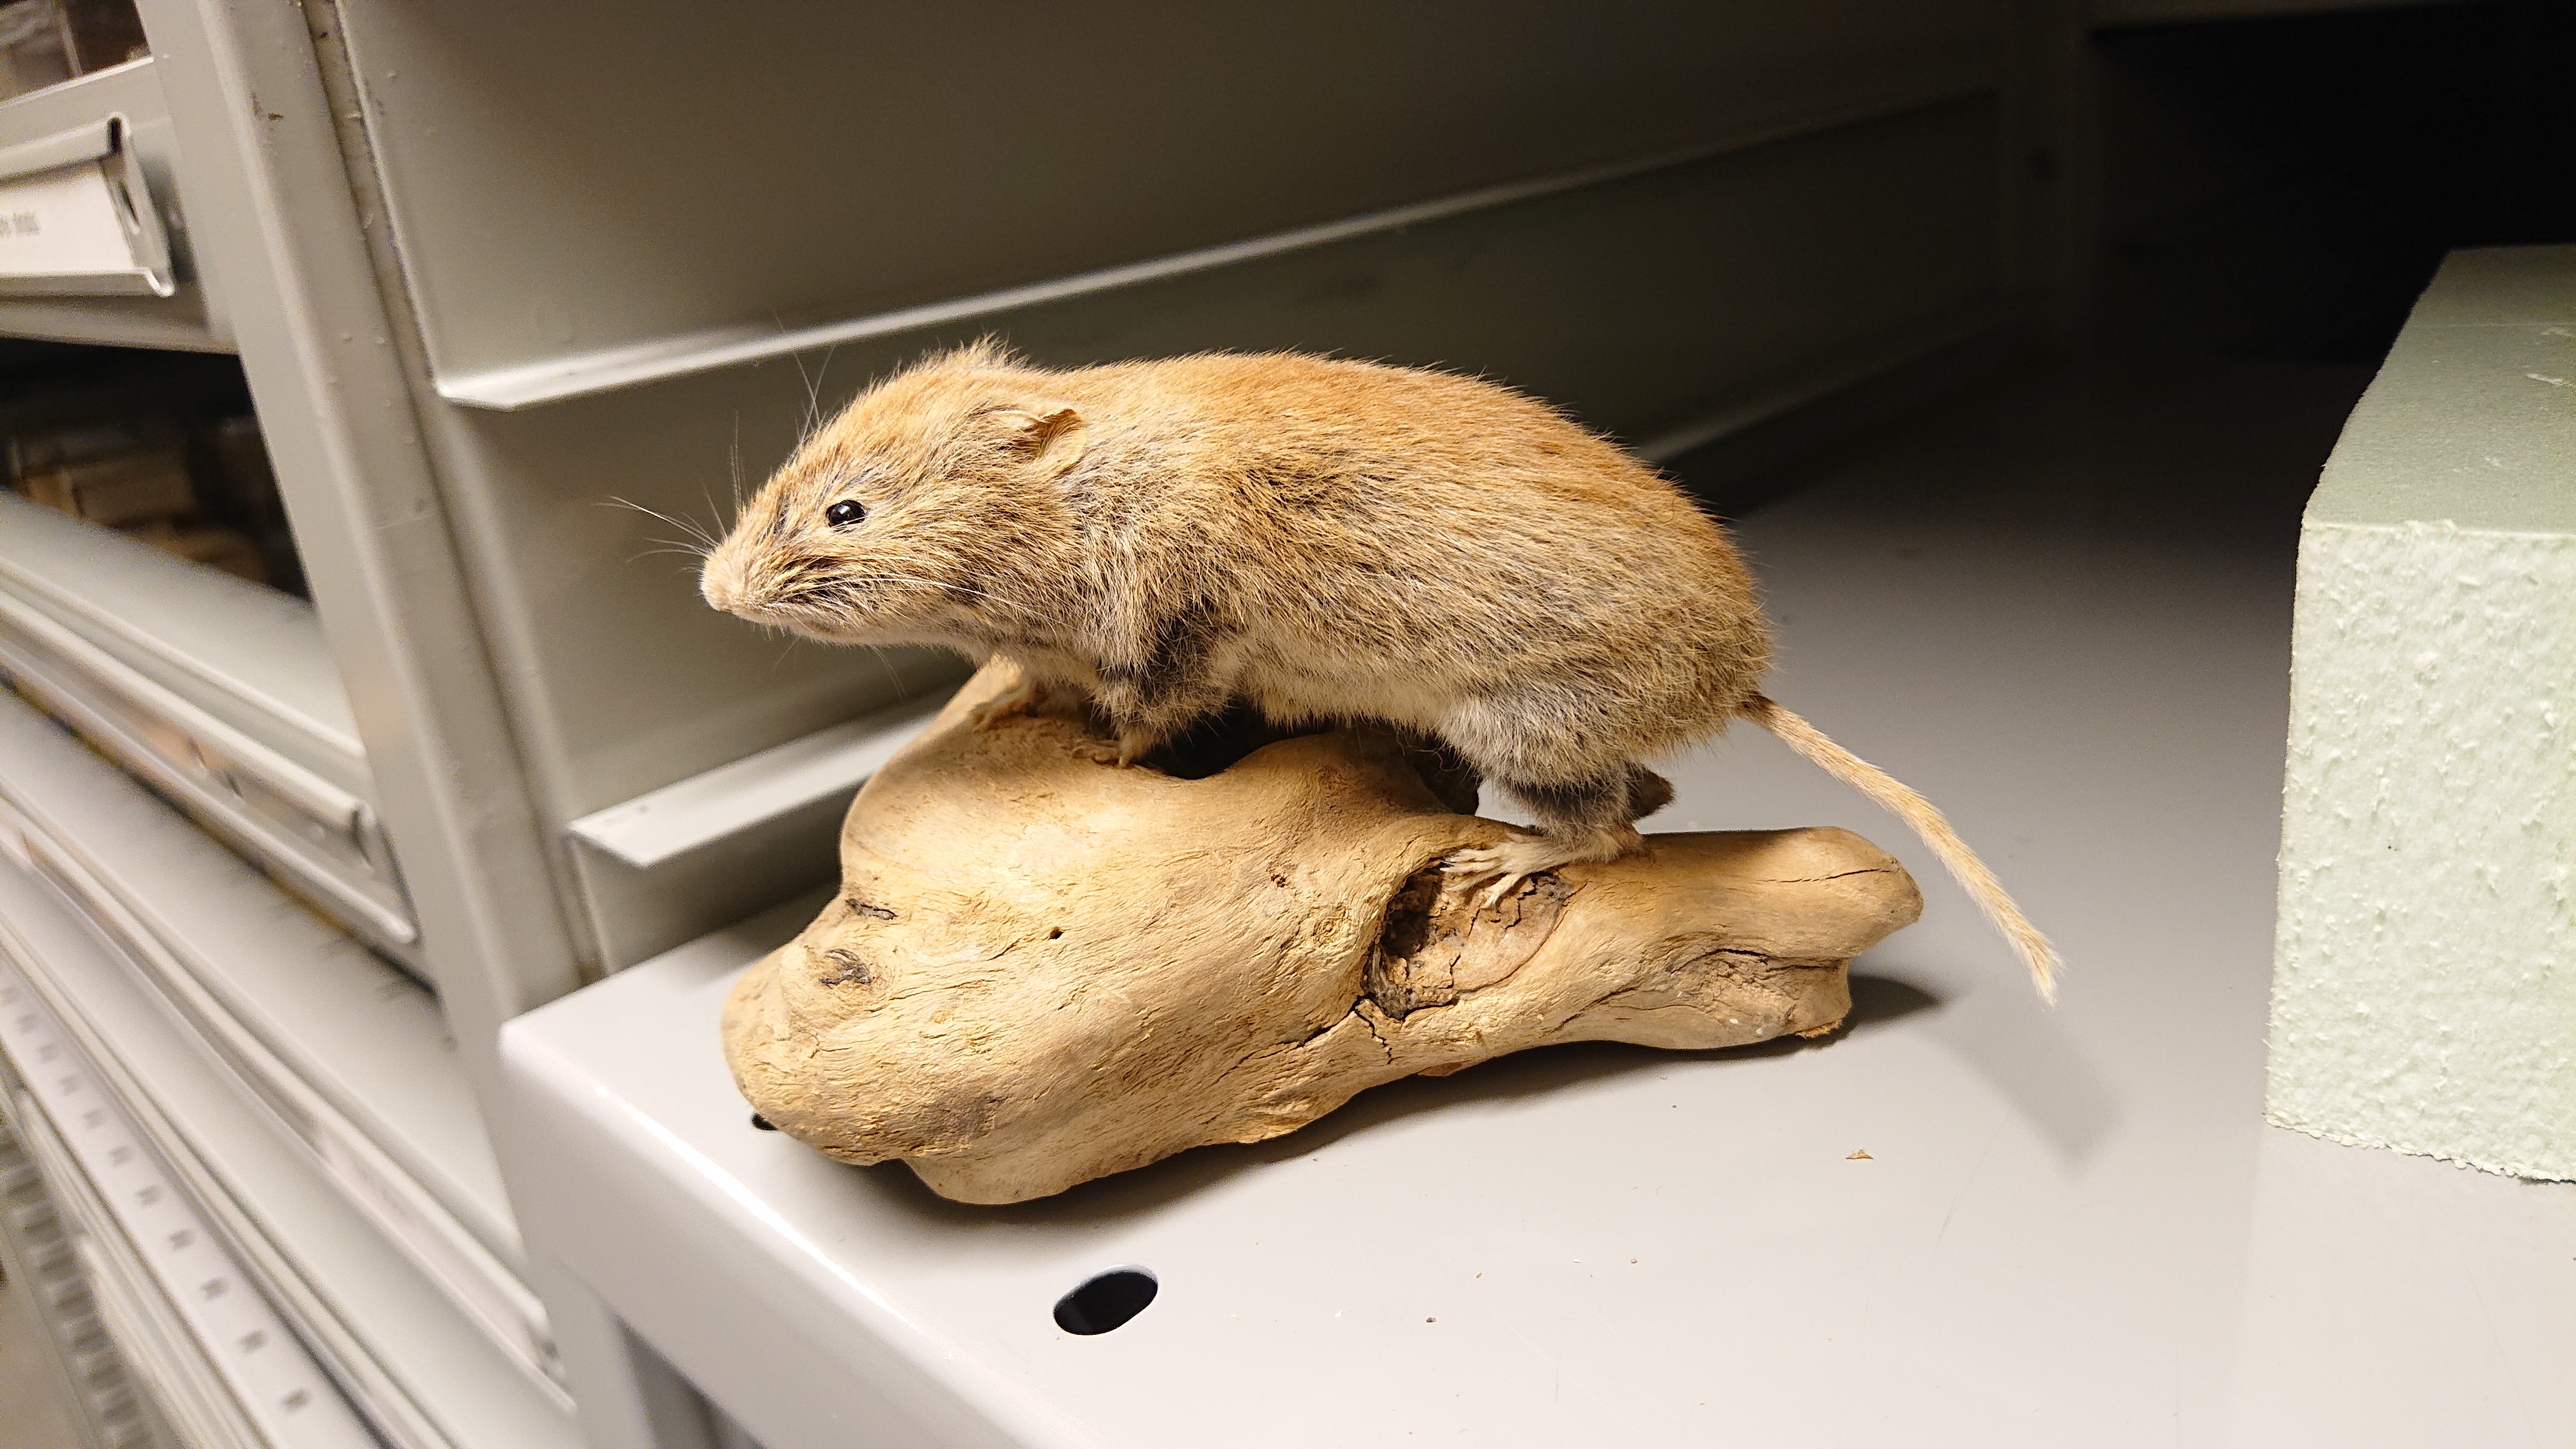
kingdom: Animalia
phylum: Chordata
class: Mammalia
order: Rodentia
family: Cricetidae
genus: Myodes
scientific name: Myodes glareolus
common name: Bank vole
